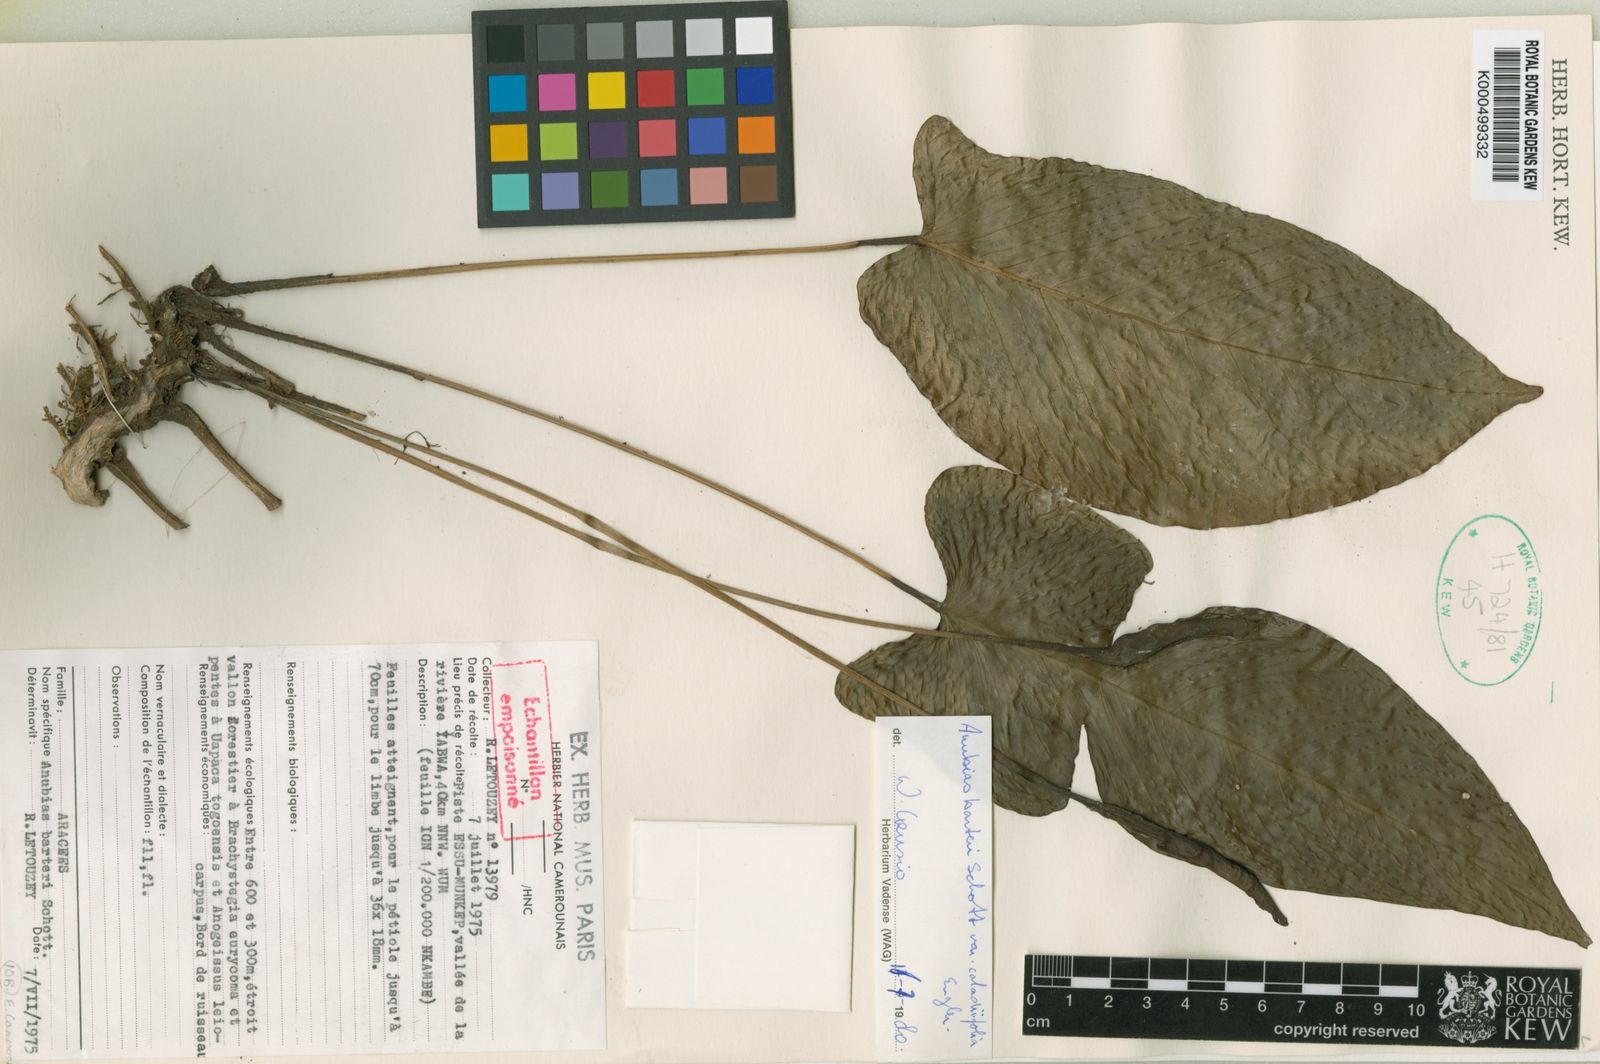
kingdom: Plantae
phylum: Tracheophyta
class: Liliopsida
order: Alismatales
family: Araceae
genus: Anubias
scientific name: Anubias barteri
